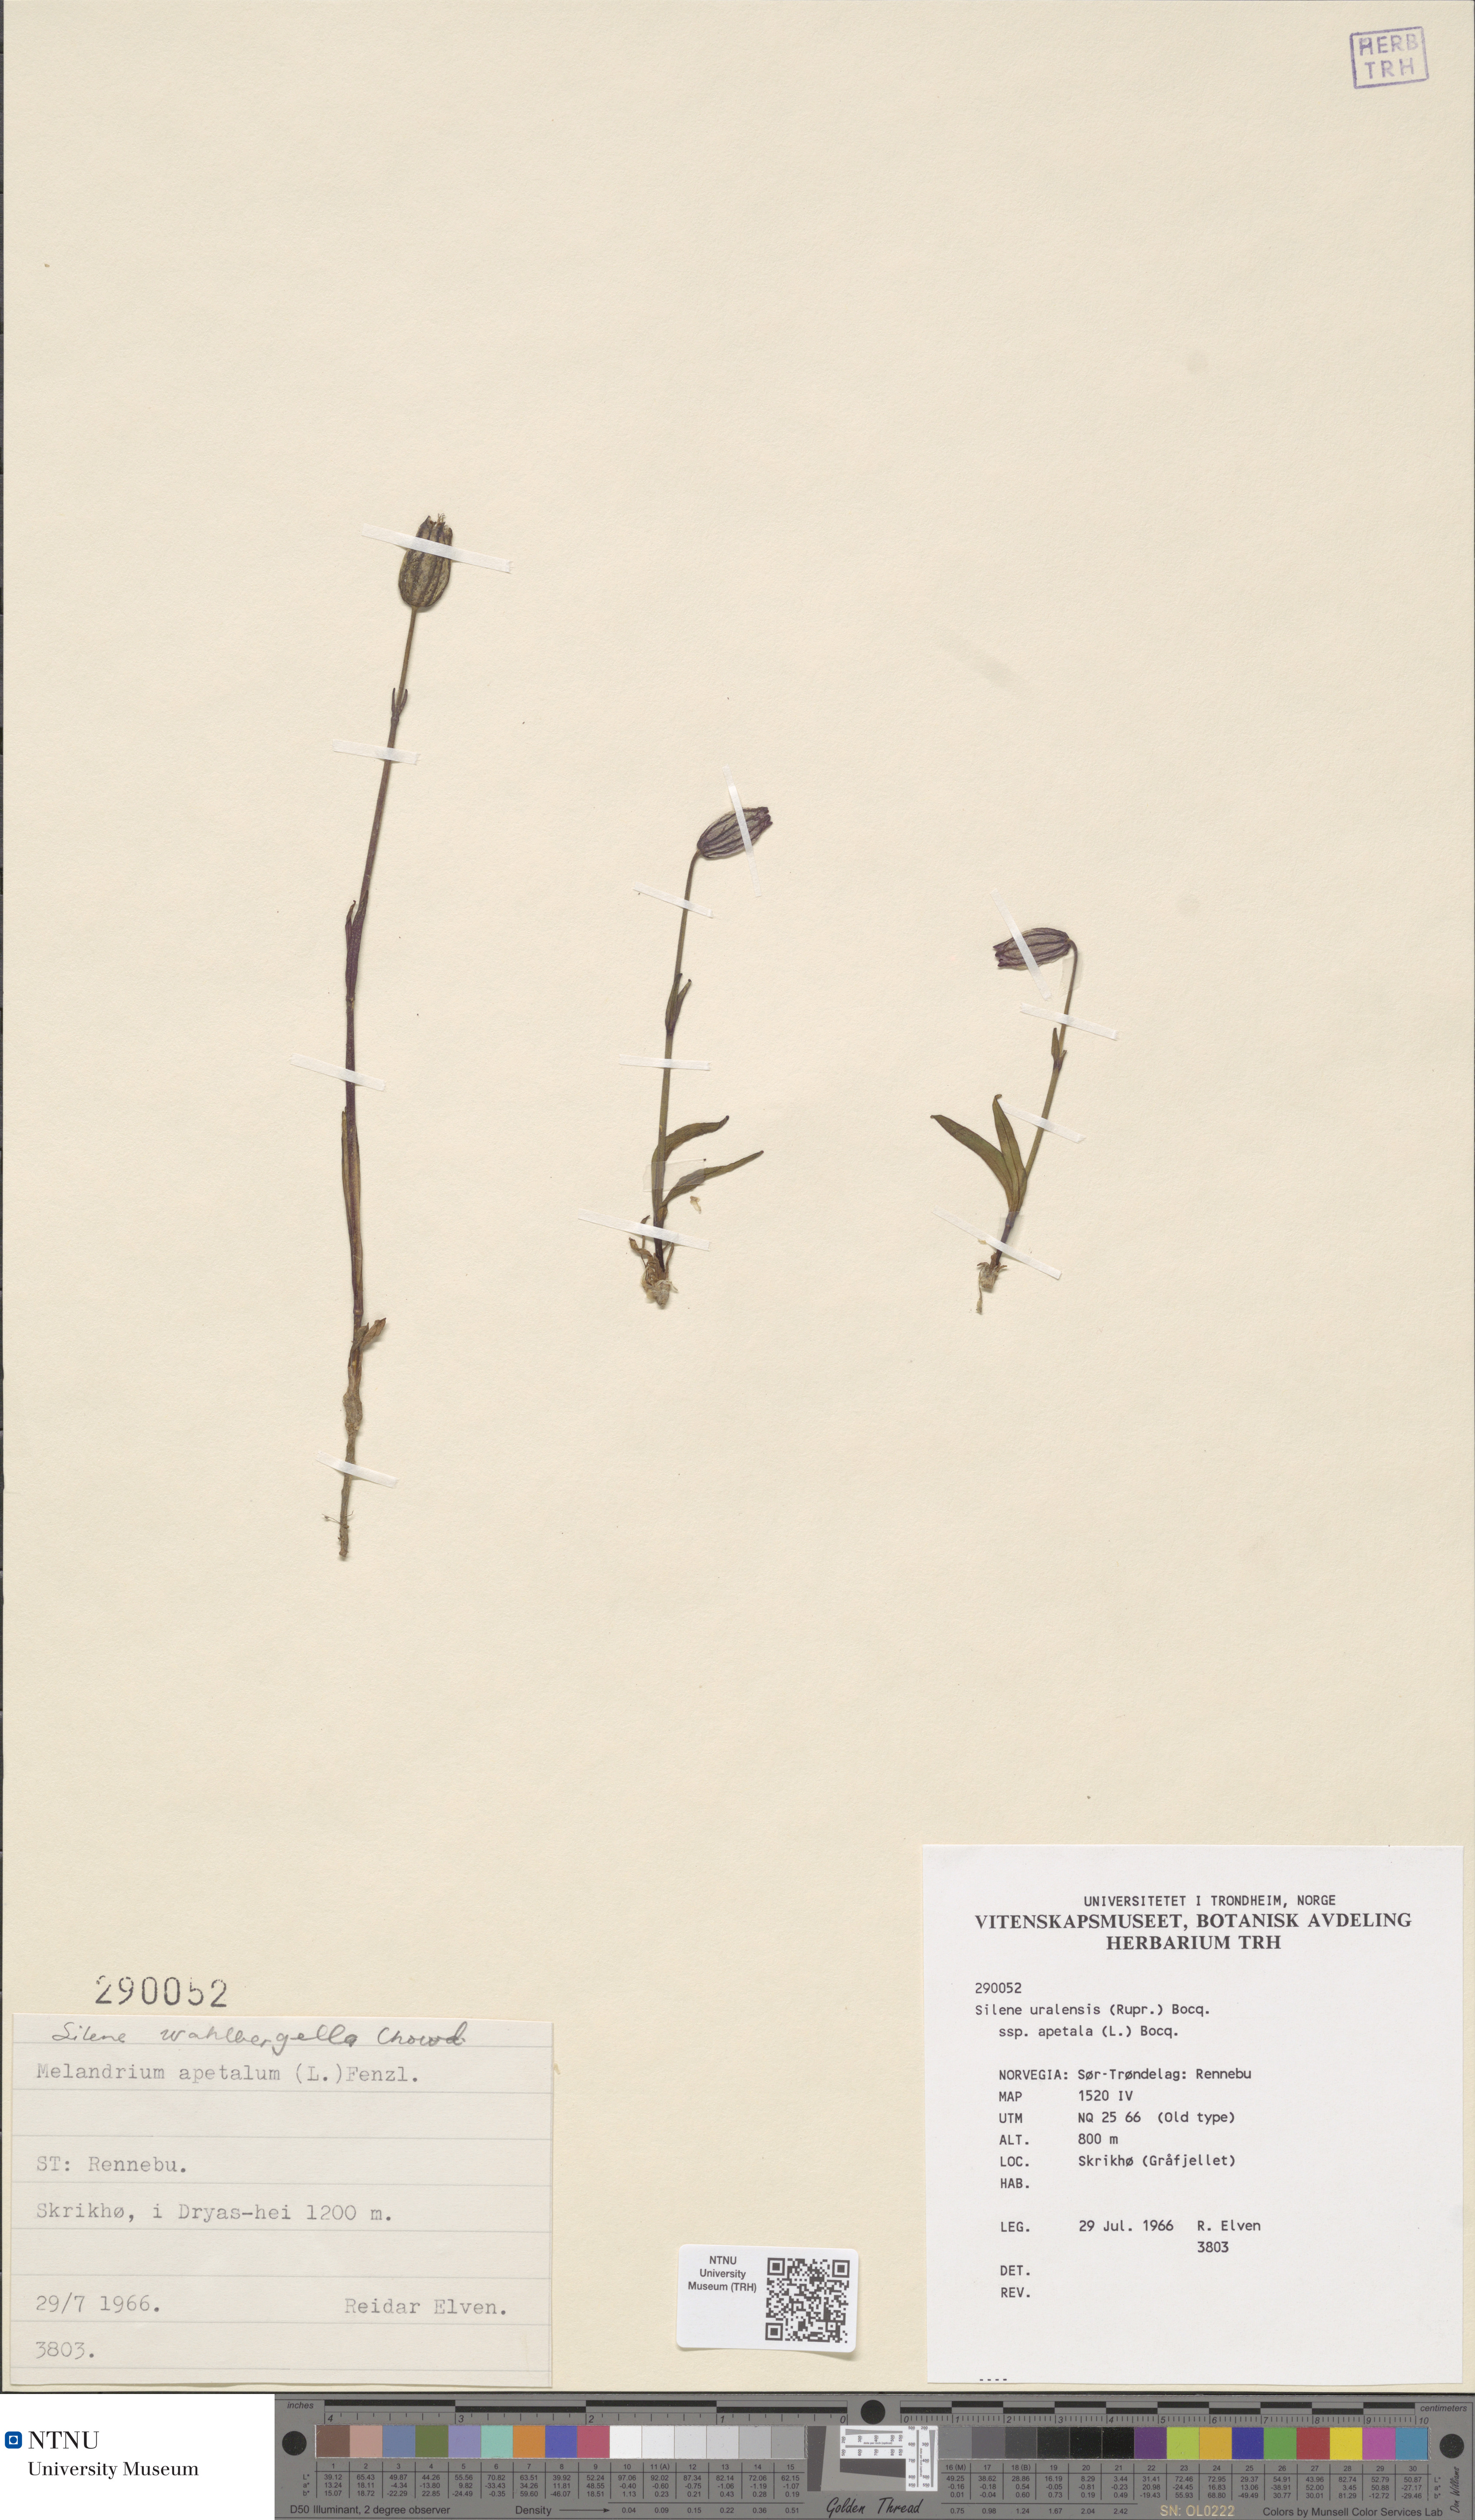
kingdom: Plantae
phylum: Tracheophyta
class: Magnoliopsida
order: Caryophyllales
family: Caryophyllaceae
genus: Silene
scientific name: Silene wahlbergella
